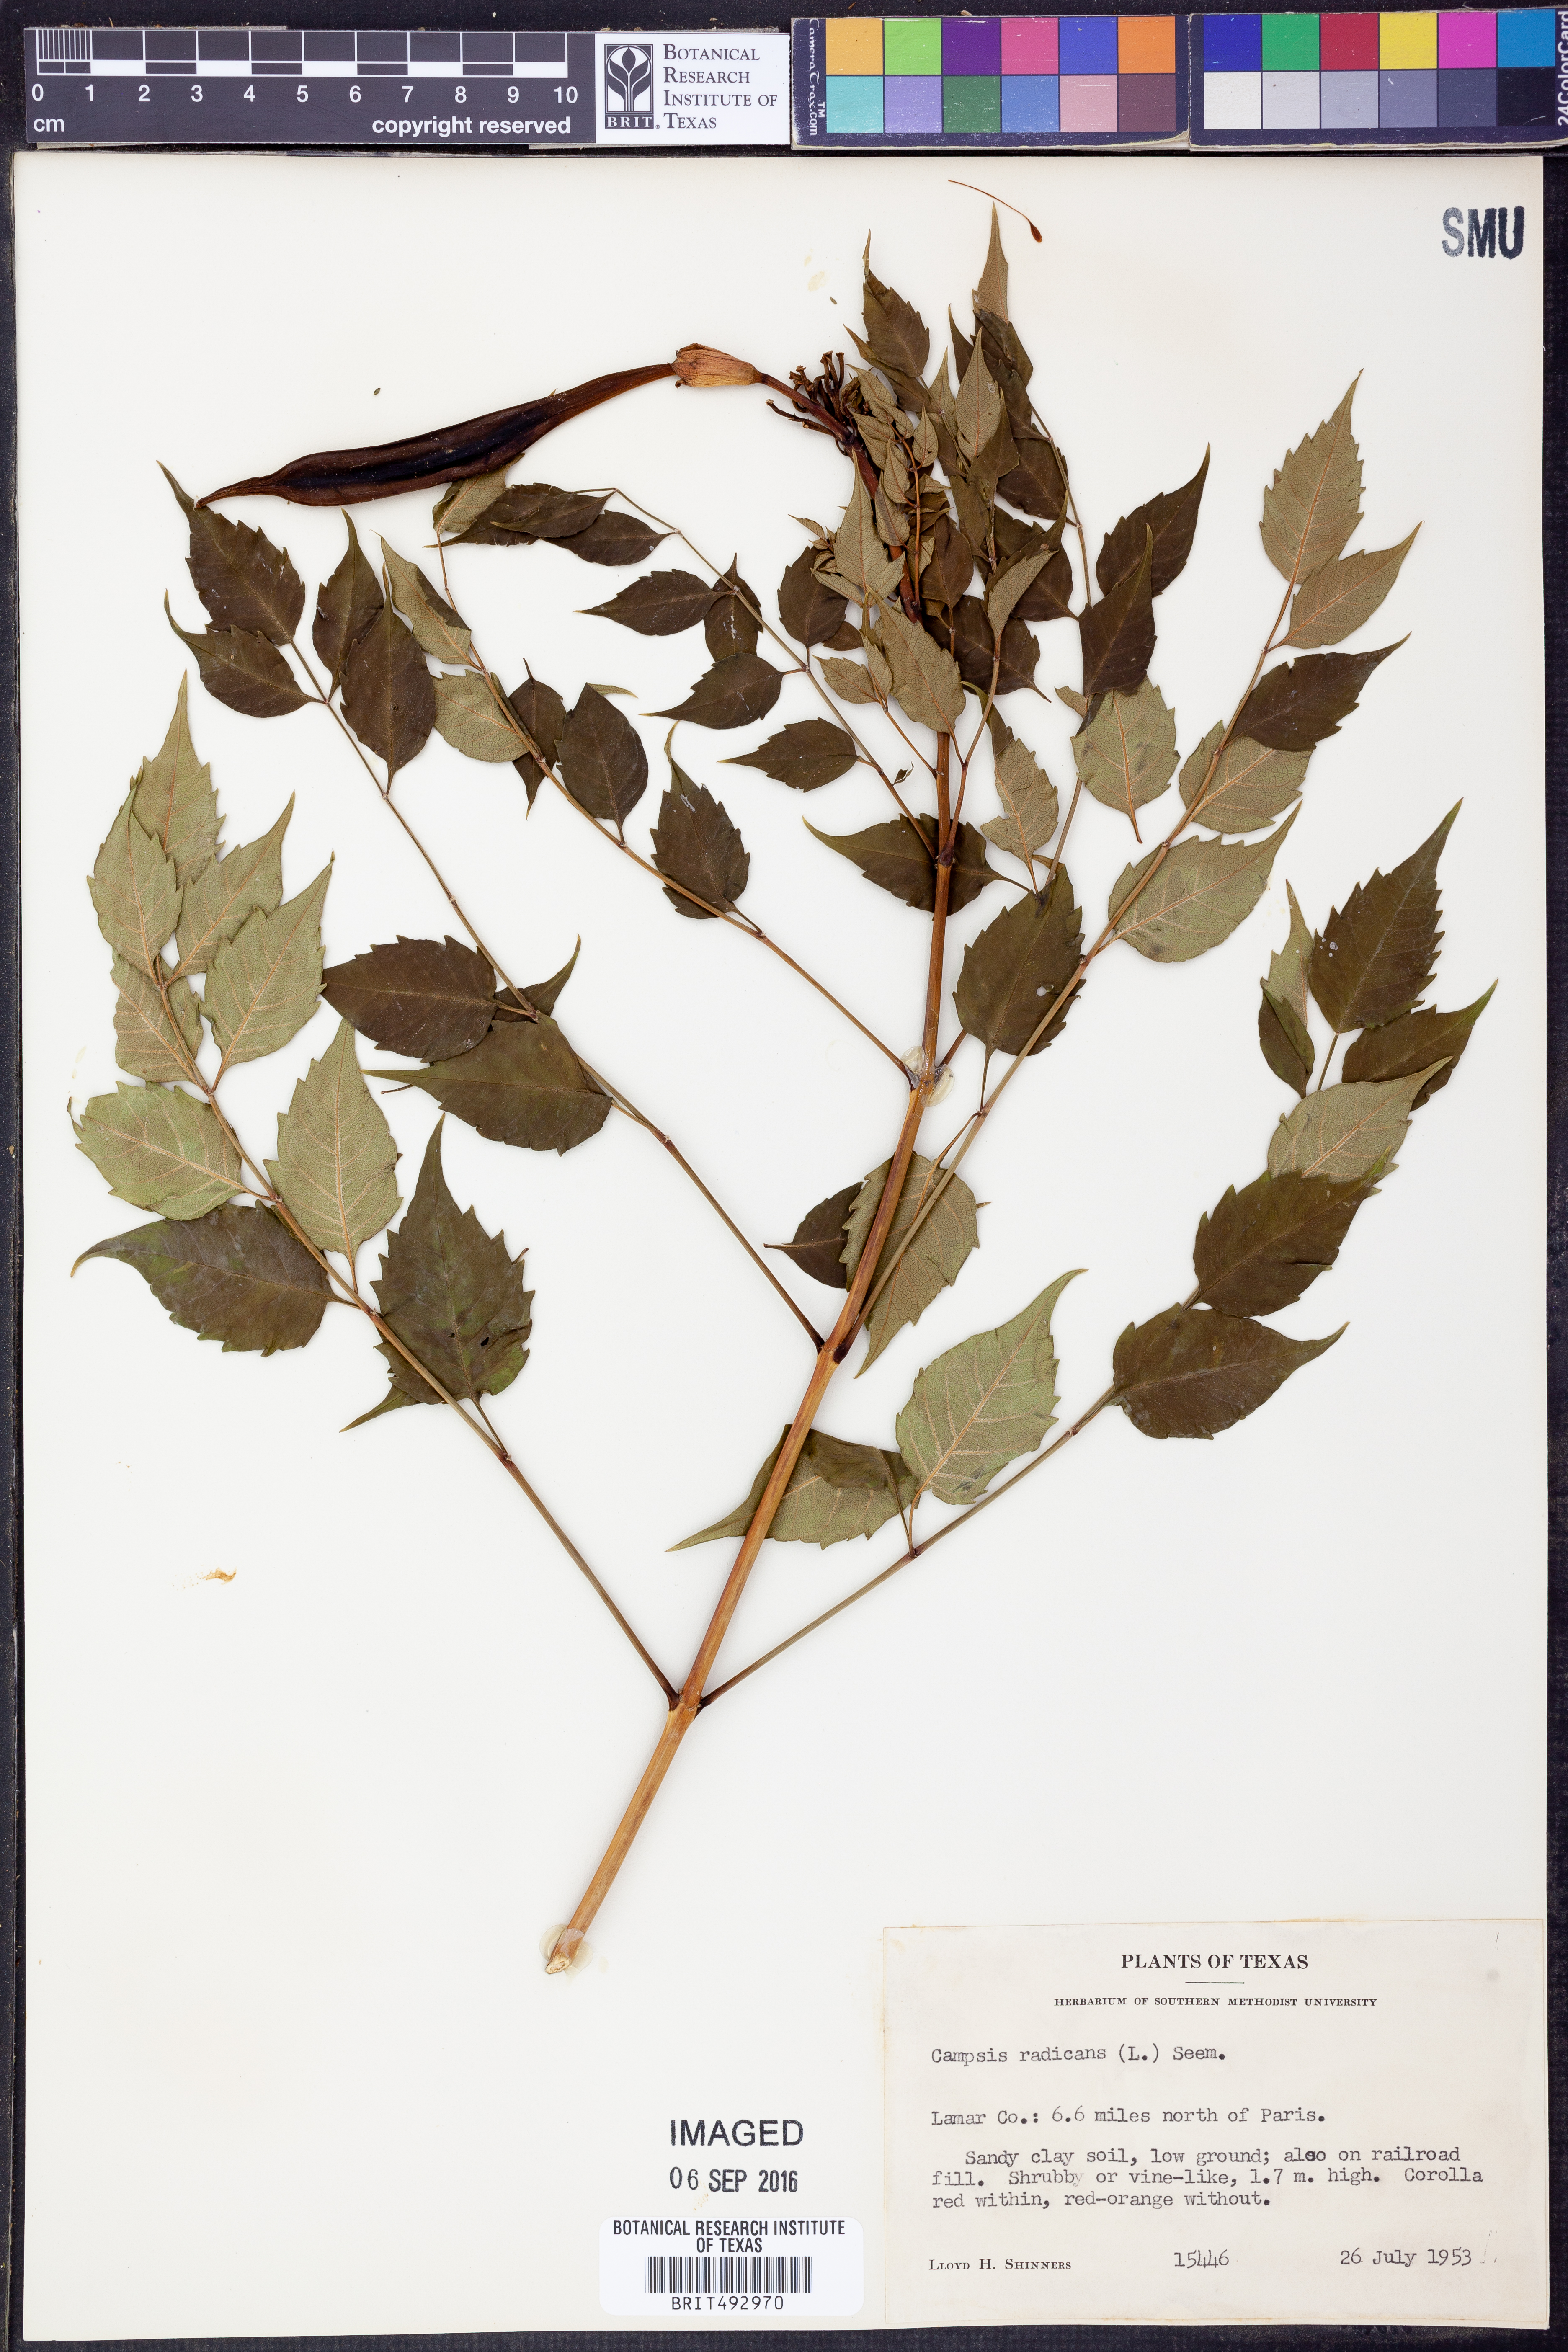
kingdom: Plantae
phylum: Tracheophyta
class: Magnoliopsida
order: Lamiales
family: Bignoniaceae
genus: Campsis
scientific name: Campsis radicans
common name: Trumpet-creeper
